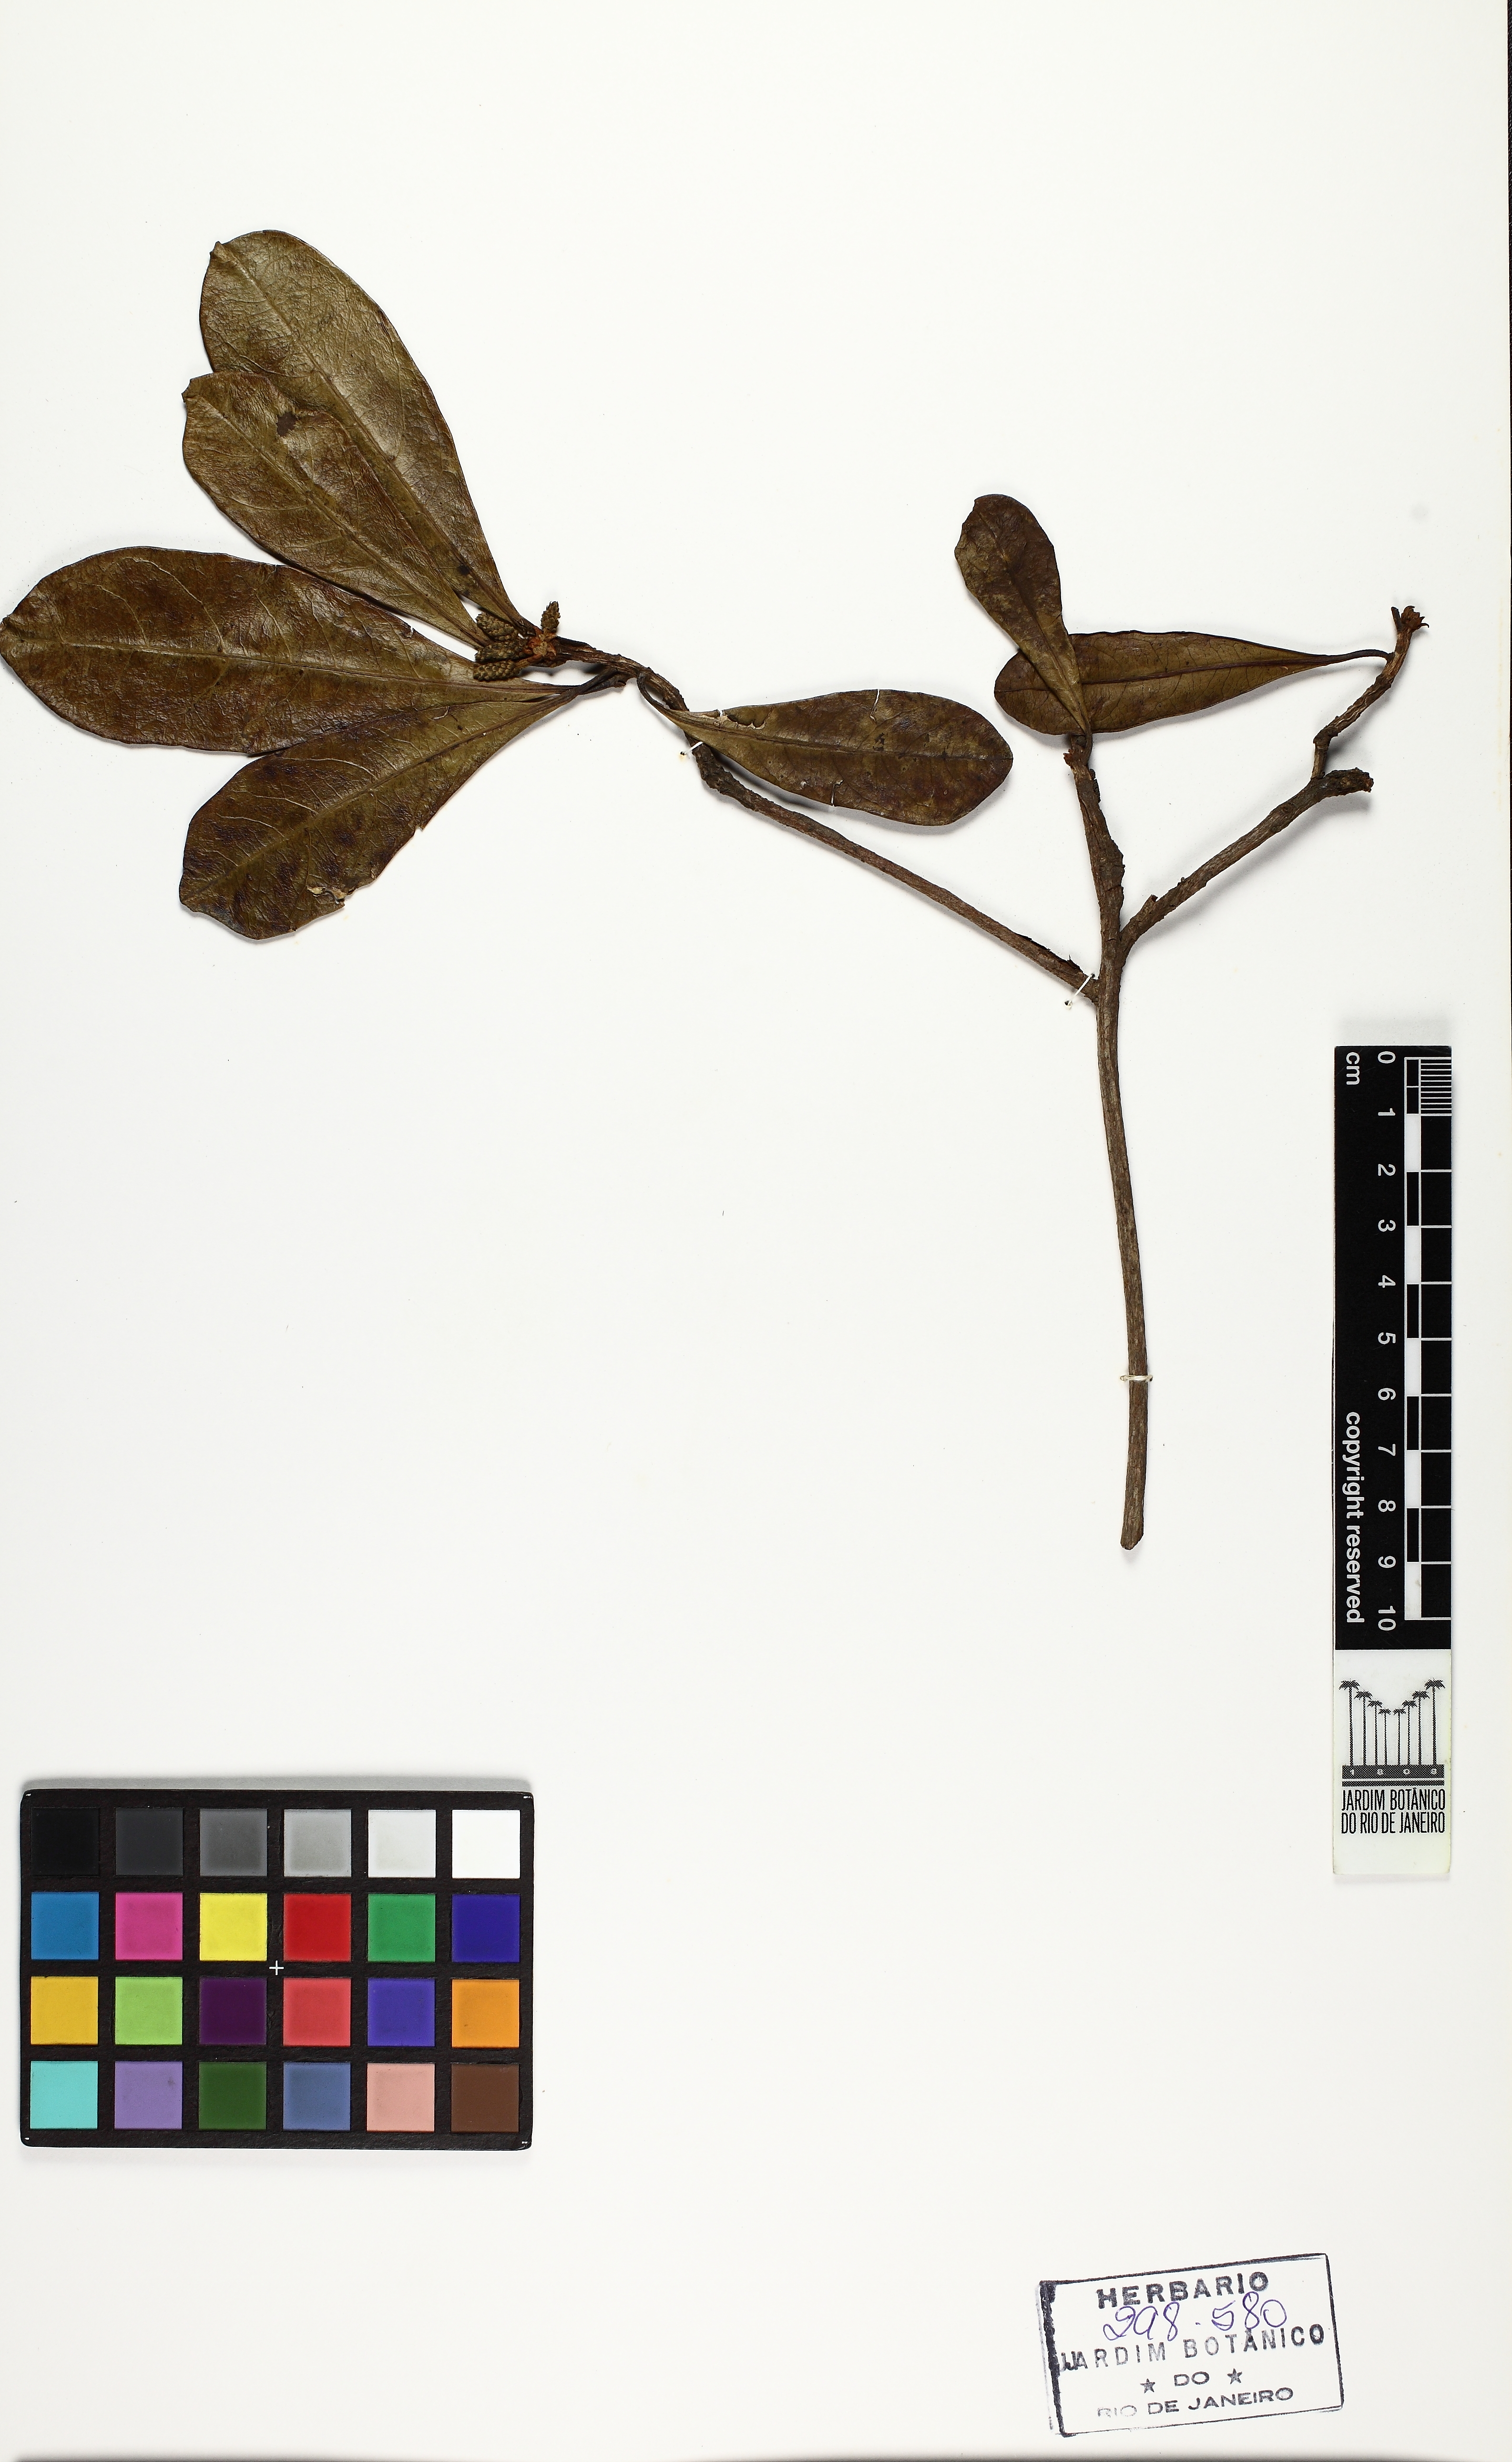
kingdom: Plantae
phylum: Tracheophyta
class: Magnoliopsida
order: Myrtales
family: Combretaceae
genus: Terminalia
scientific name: Terminalia glabrescens
